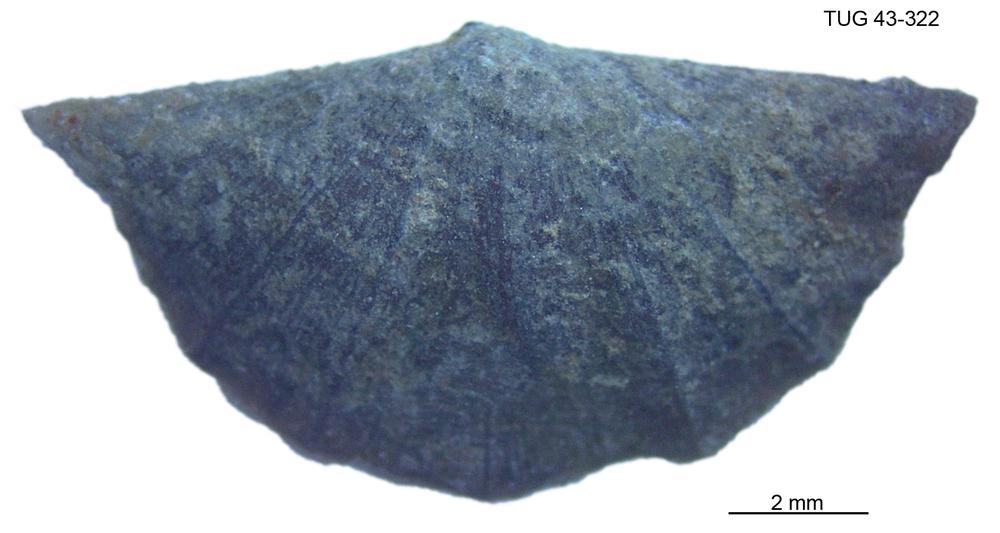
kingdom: Animalia
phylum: Brachiopoda
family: Sowerbyellidae
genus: Sowerbyella
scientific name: Sowerbyella
